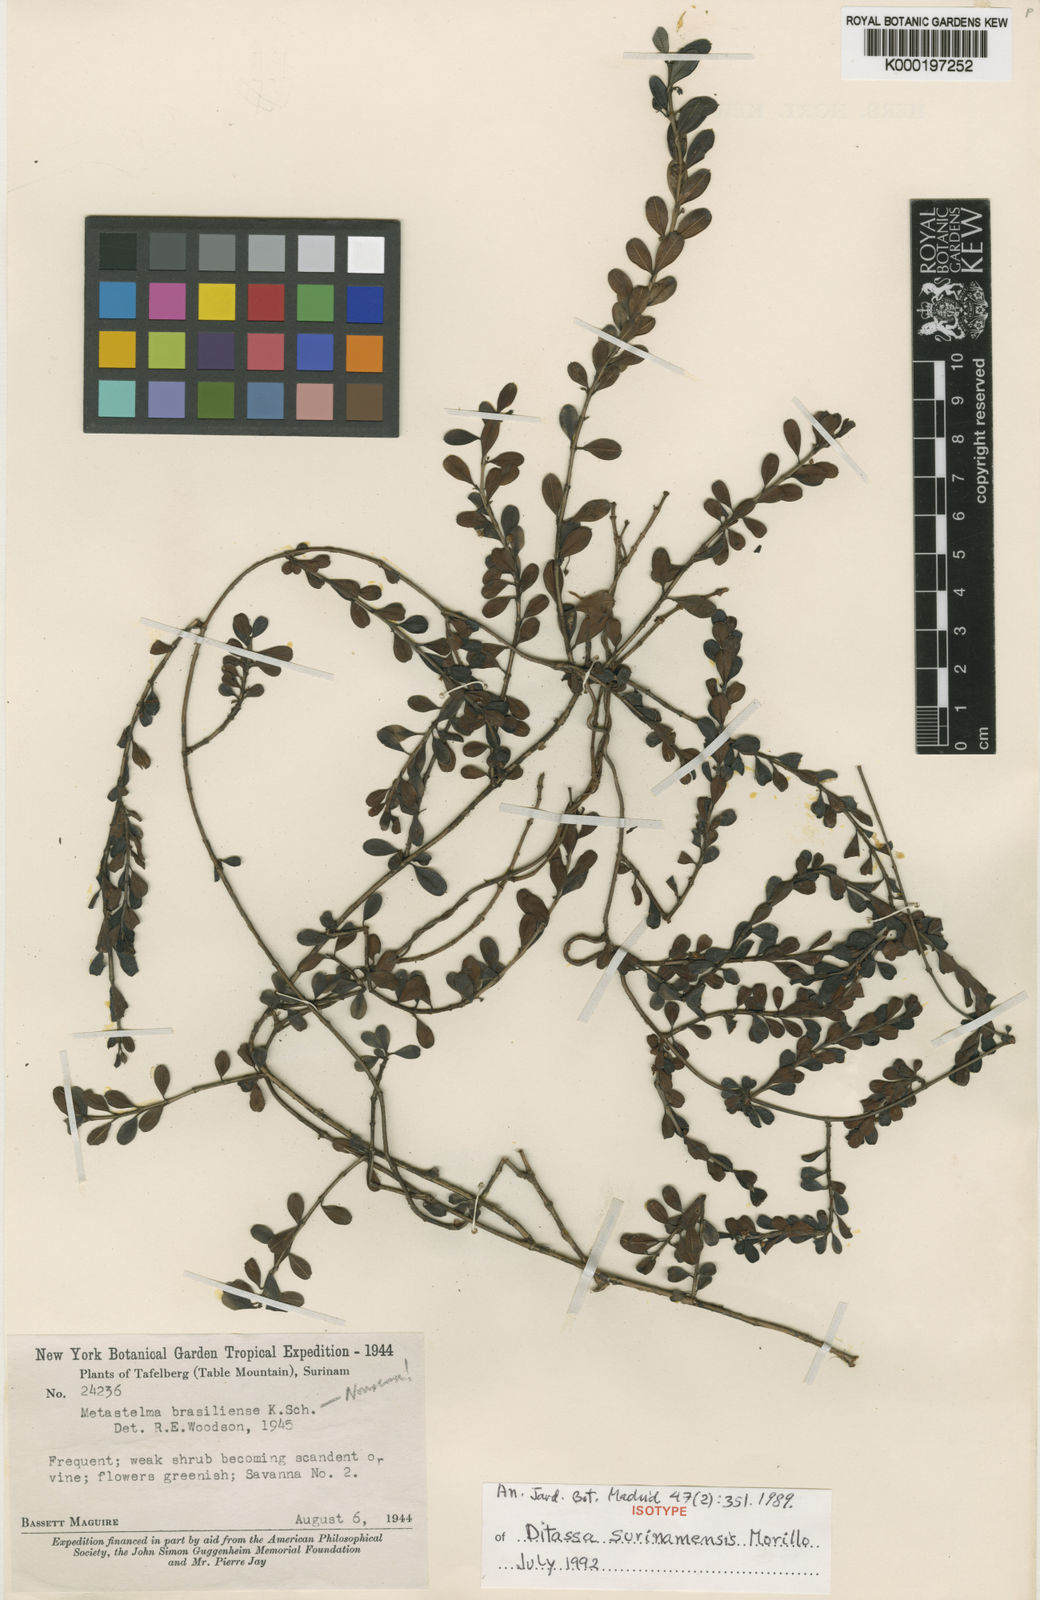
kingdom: Plantae
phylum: Tracheophyta
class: Magnoliopsida
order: Gentianales
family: Apocynaceae
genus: Ditassa
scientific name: Ditassa surinamensis
